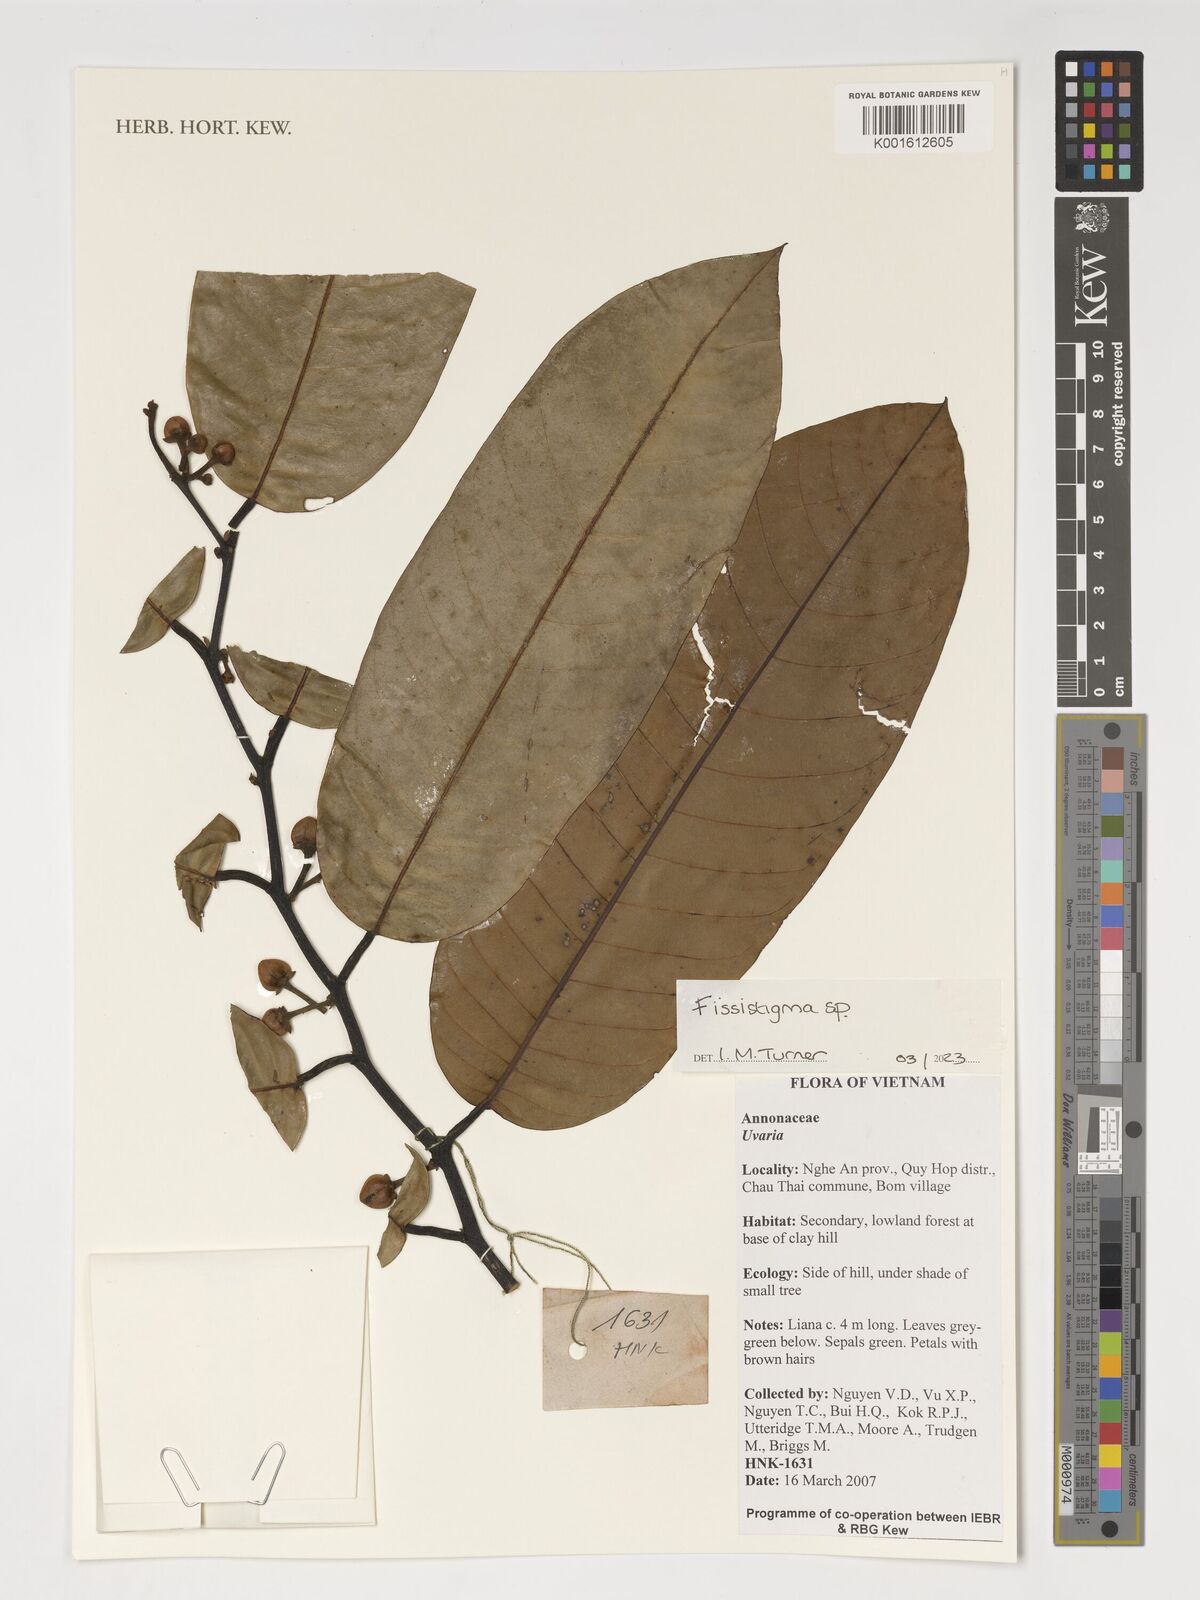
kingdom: Plantae
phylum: Tracheophyta
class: Magnoliopsida
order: Magnoliales
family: Annonaceae
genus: Fissistigma
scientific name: Fissistigma
